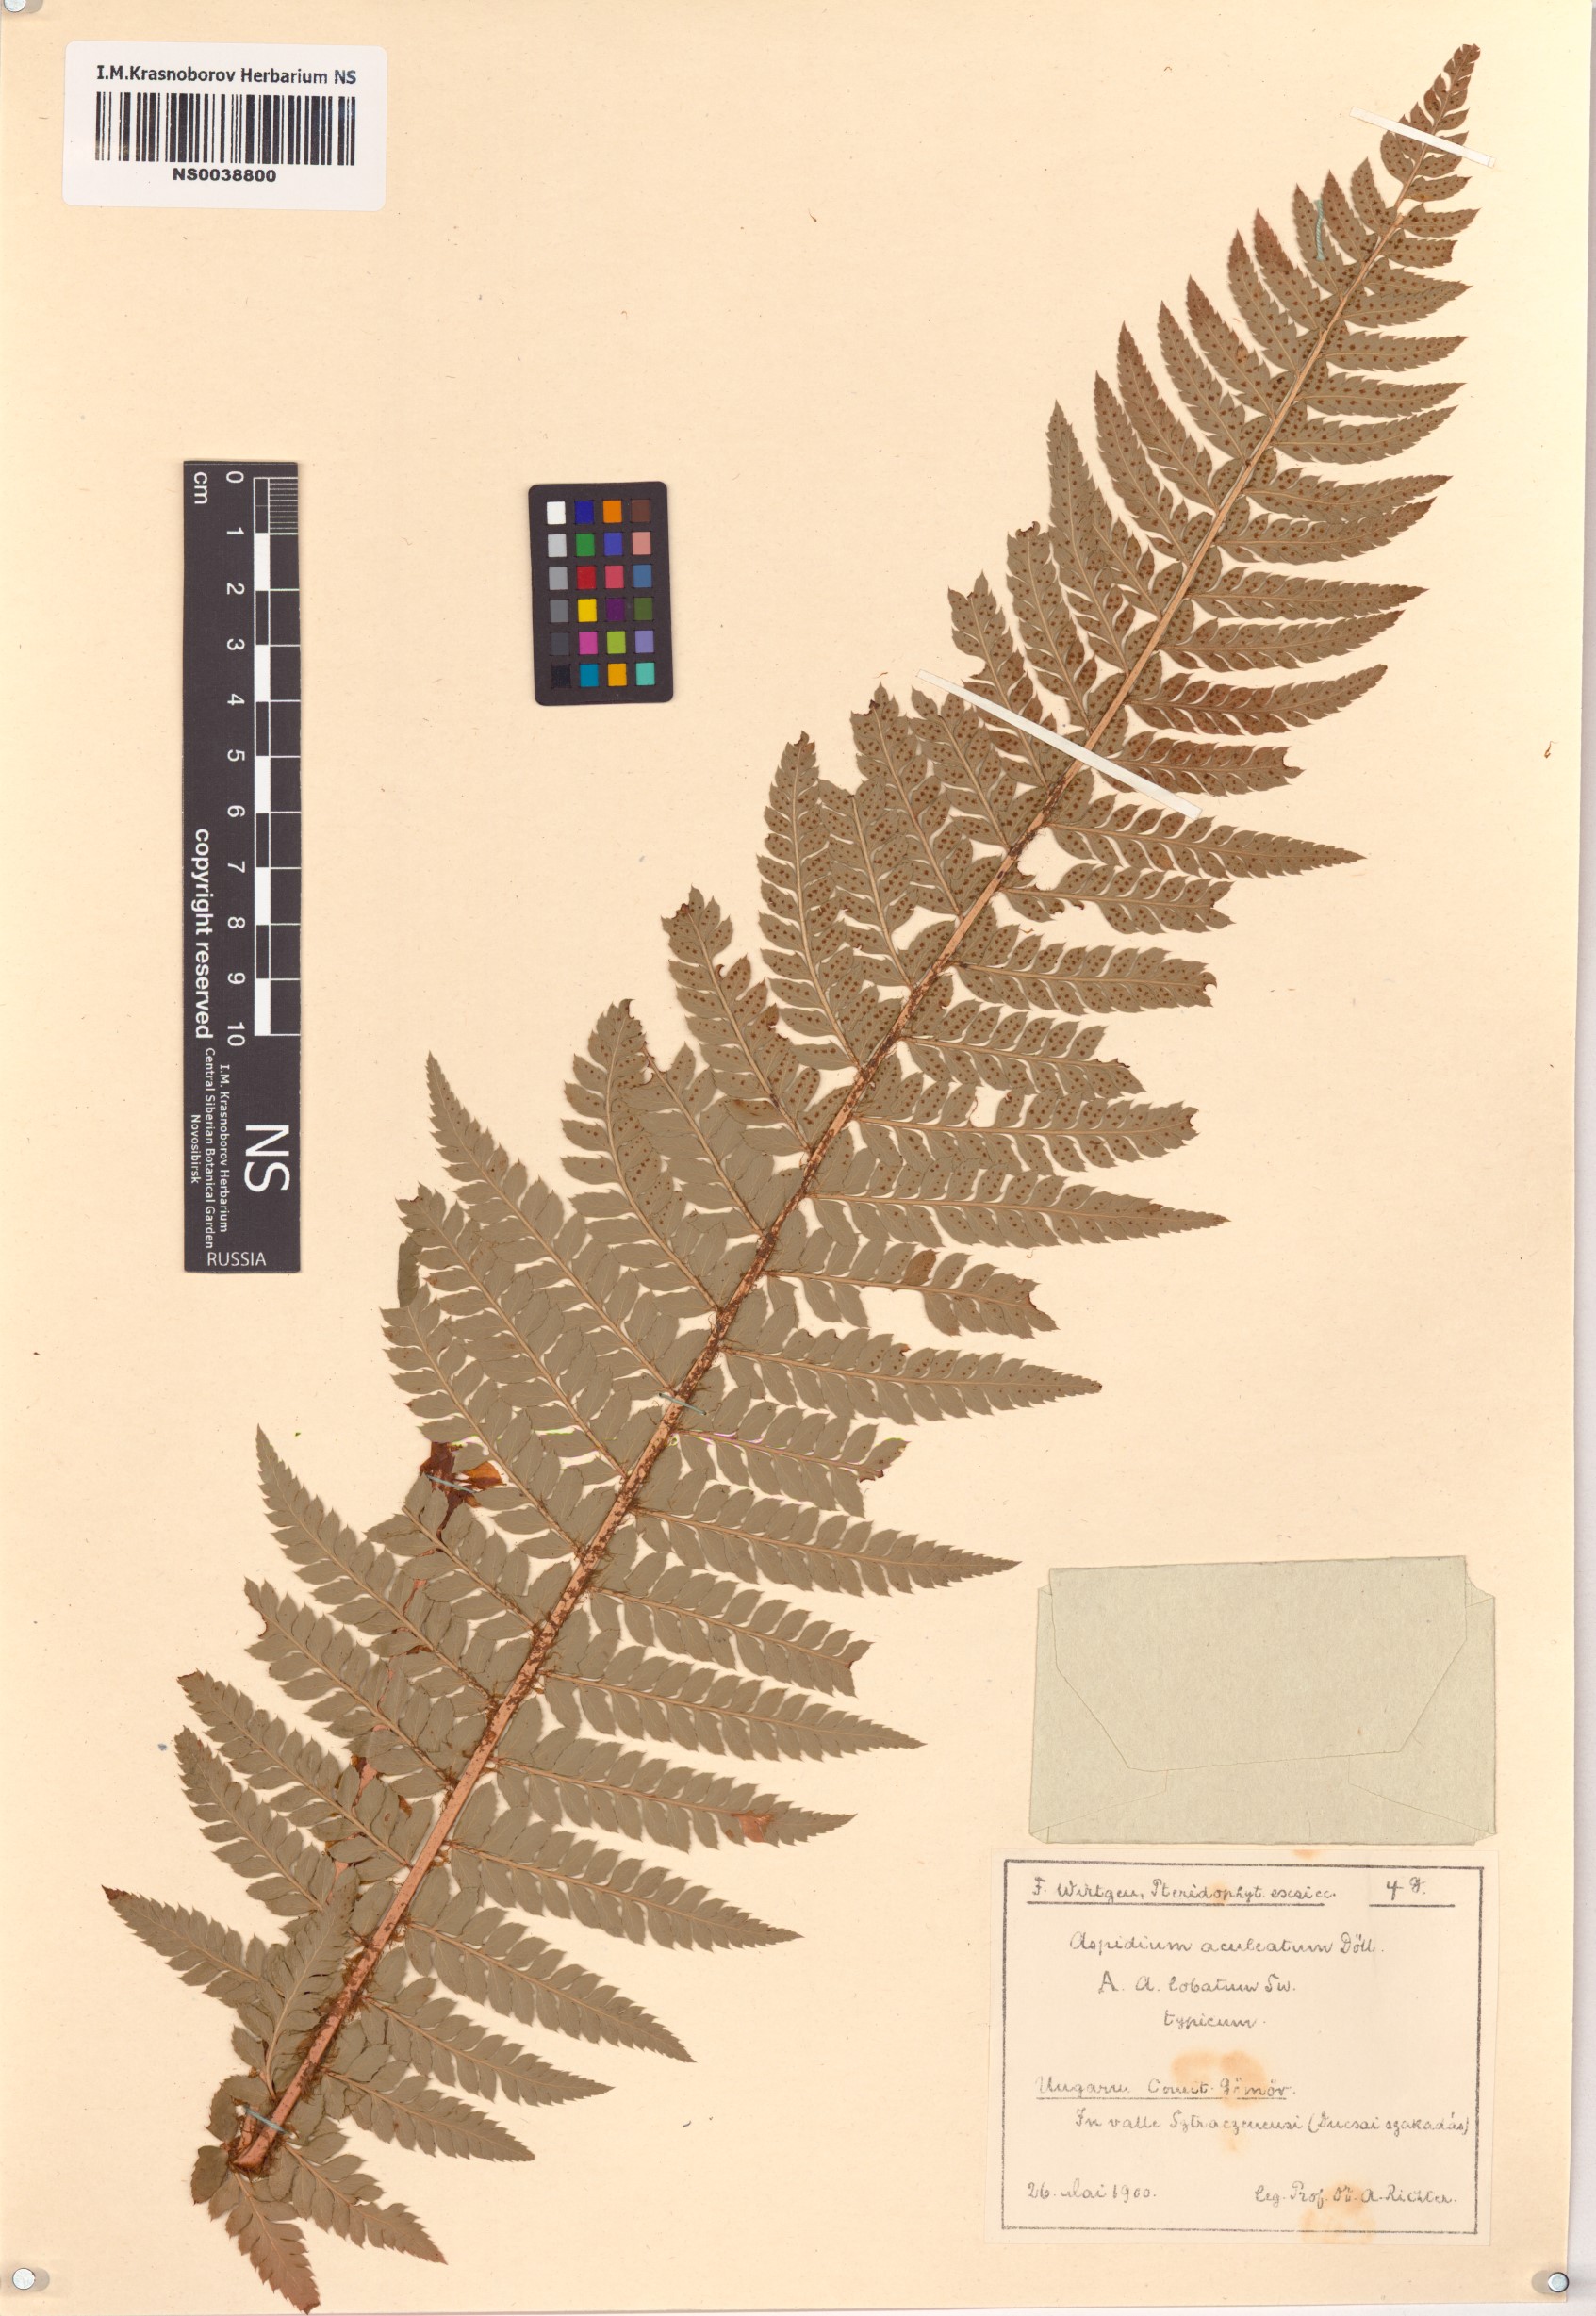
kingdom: Plantae
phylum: Tracheophyta
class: Polypodiopsida
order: Polypodiales
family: Dryopteridaceae
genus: Polystichum
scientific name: Polystichum aculeatum
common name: Hard shield-fern
